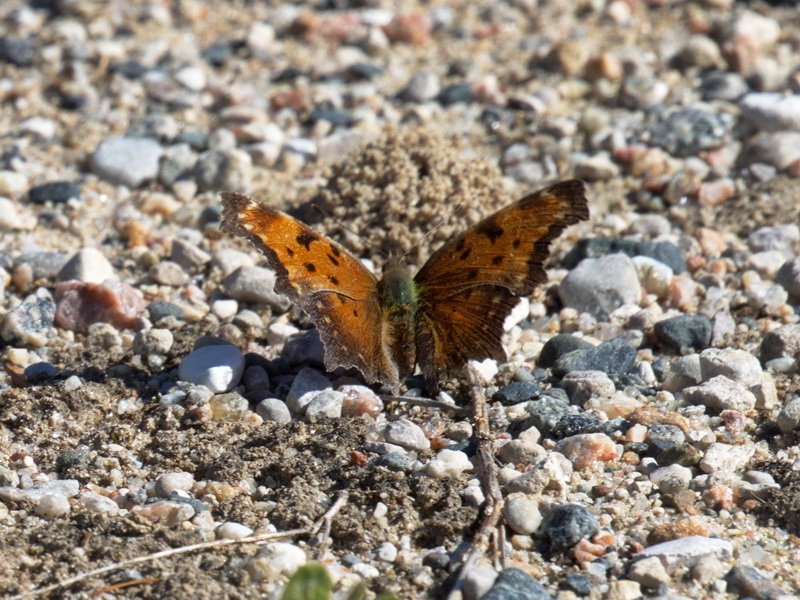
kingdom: Animalia
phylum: Arthropoda
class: Insecta
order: Lepidoptera
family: Nymphalidae
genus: Polygonia
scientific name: Polygonia gracilis
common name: Hoary Comma
